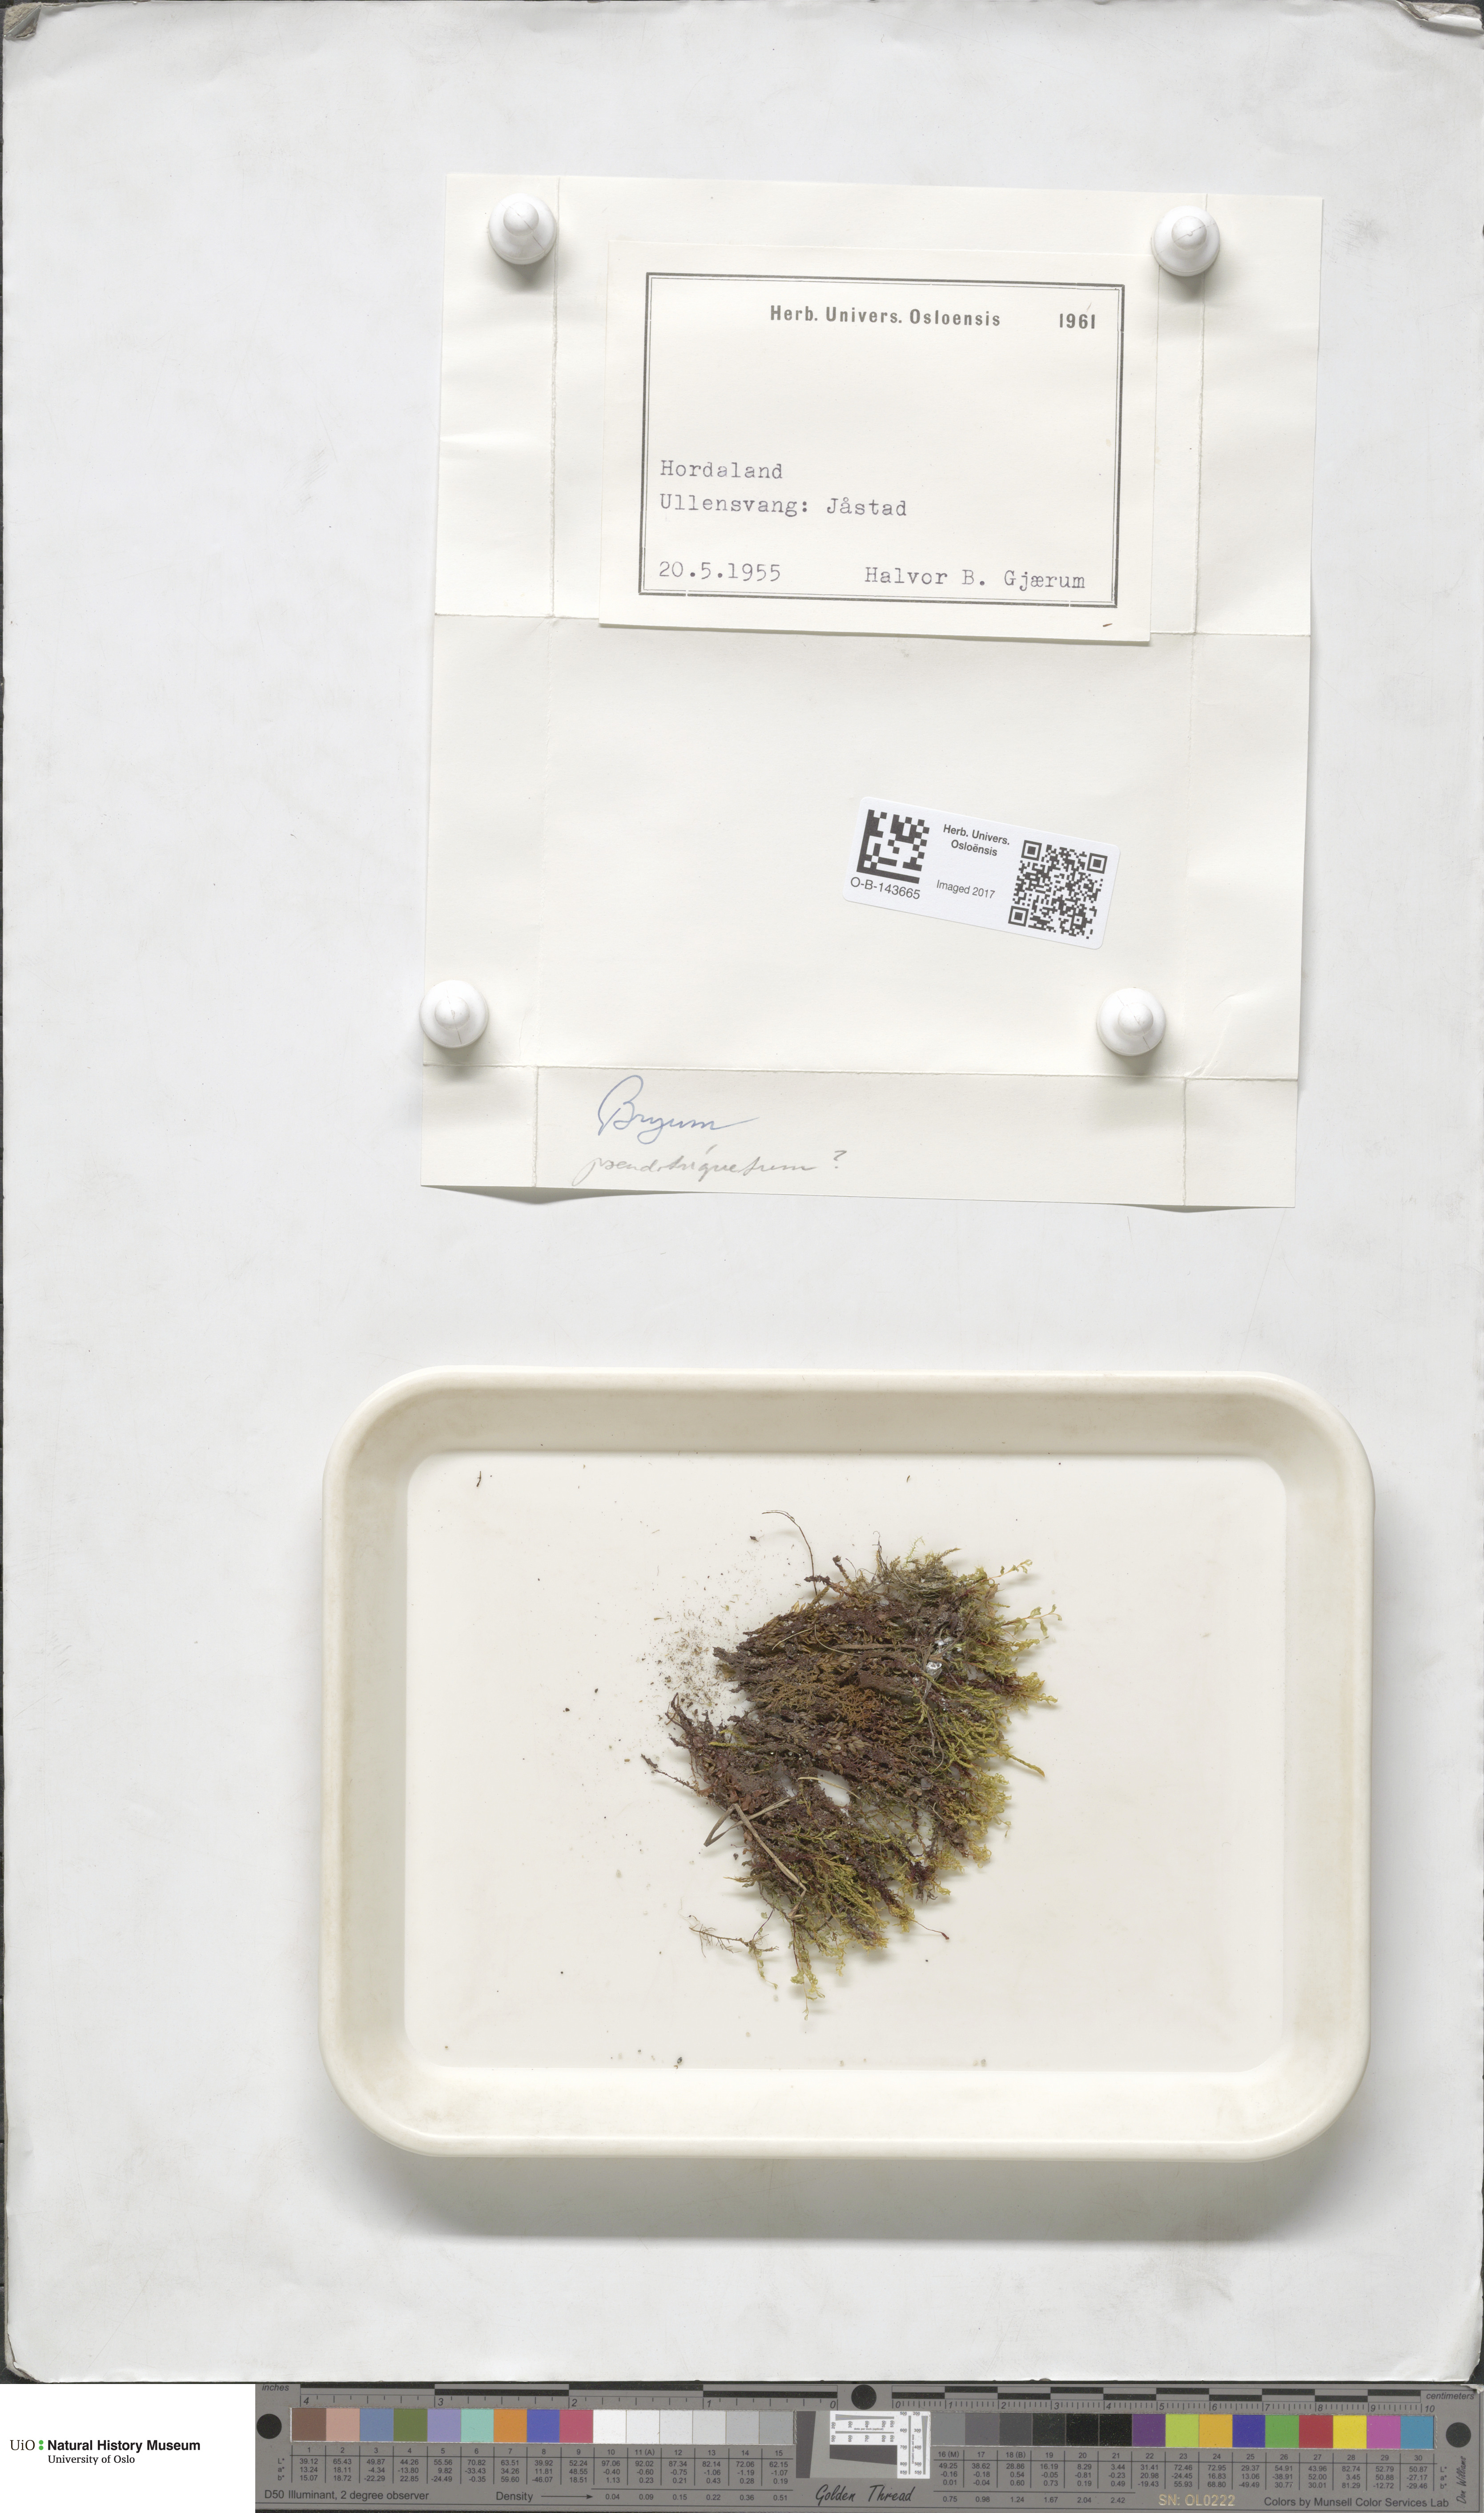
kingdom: Plantae
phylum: Bryophyta
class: Bryopsida
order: Bryales
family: Bryaceae
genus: Bryum
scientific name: Bryum
